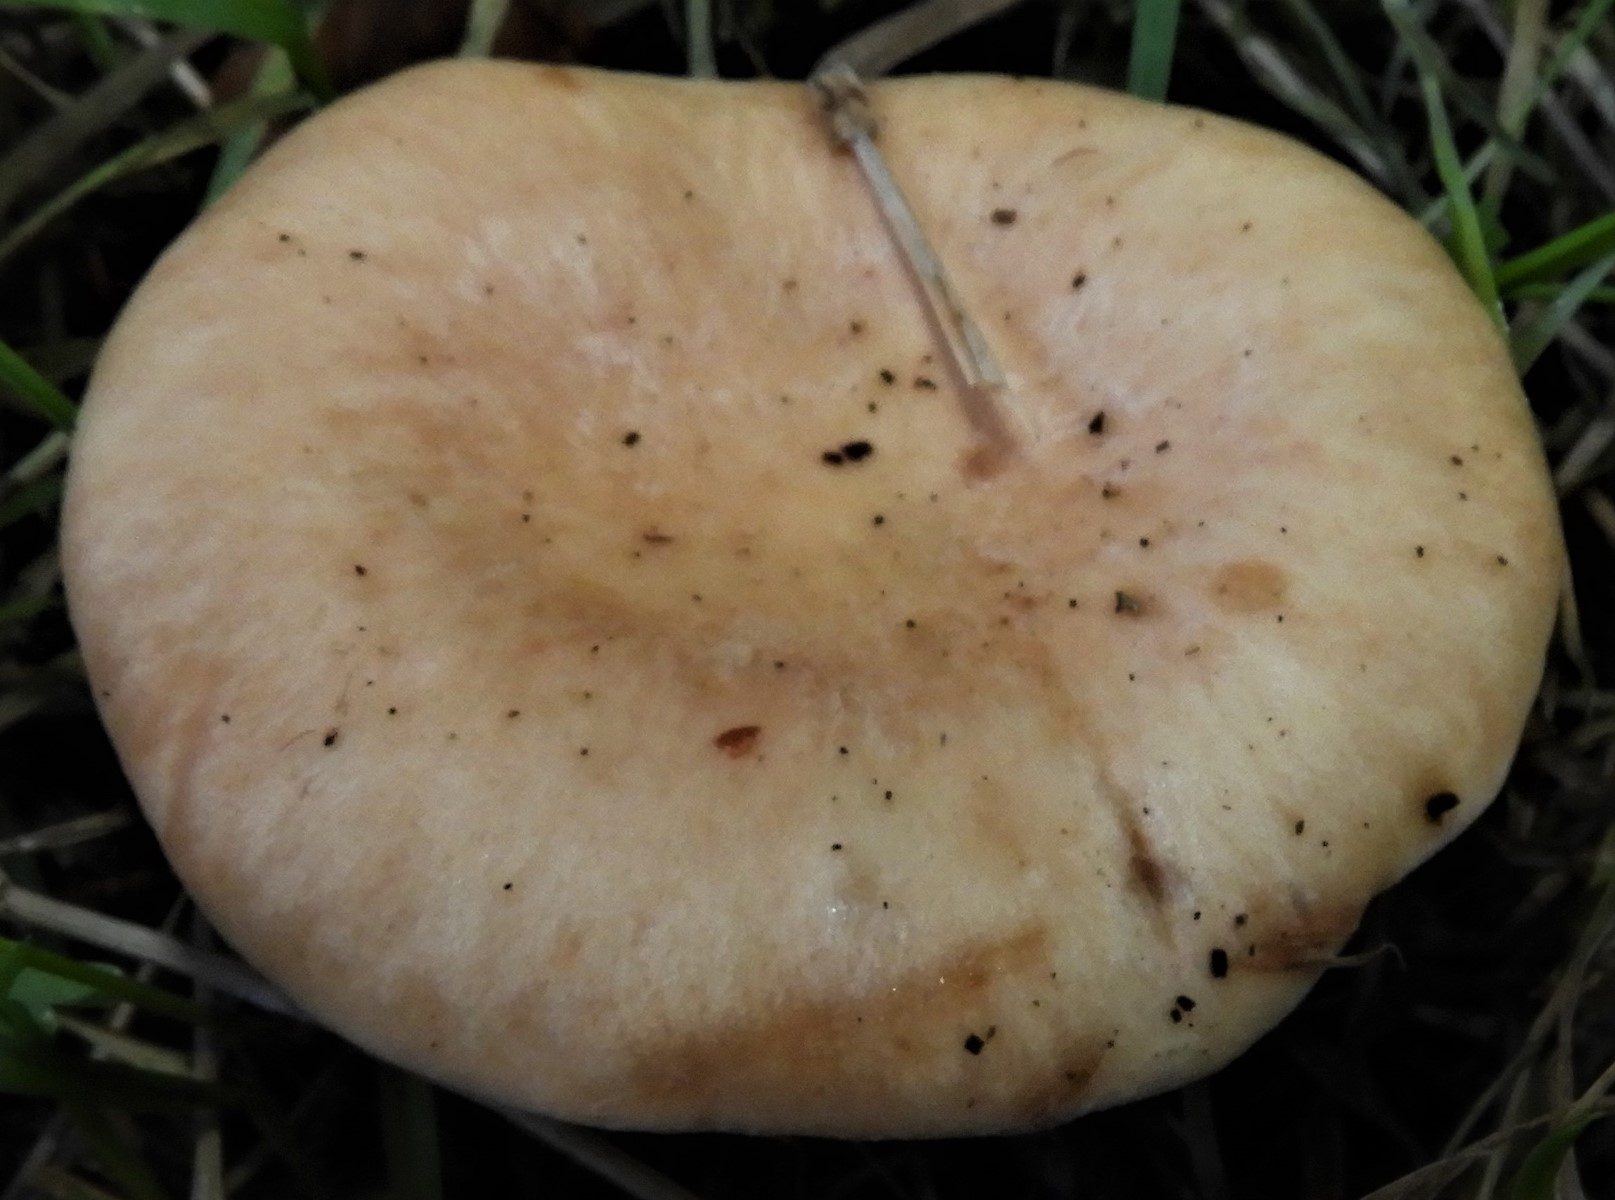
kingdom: Fungi
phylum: Basidiomycota
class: Agaricomycetes
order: Agaricales
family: Tricholomataceae
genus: Paralepista
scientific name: Paralepista flaccida
